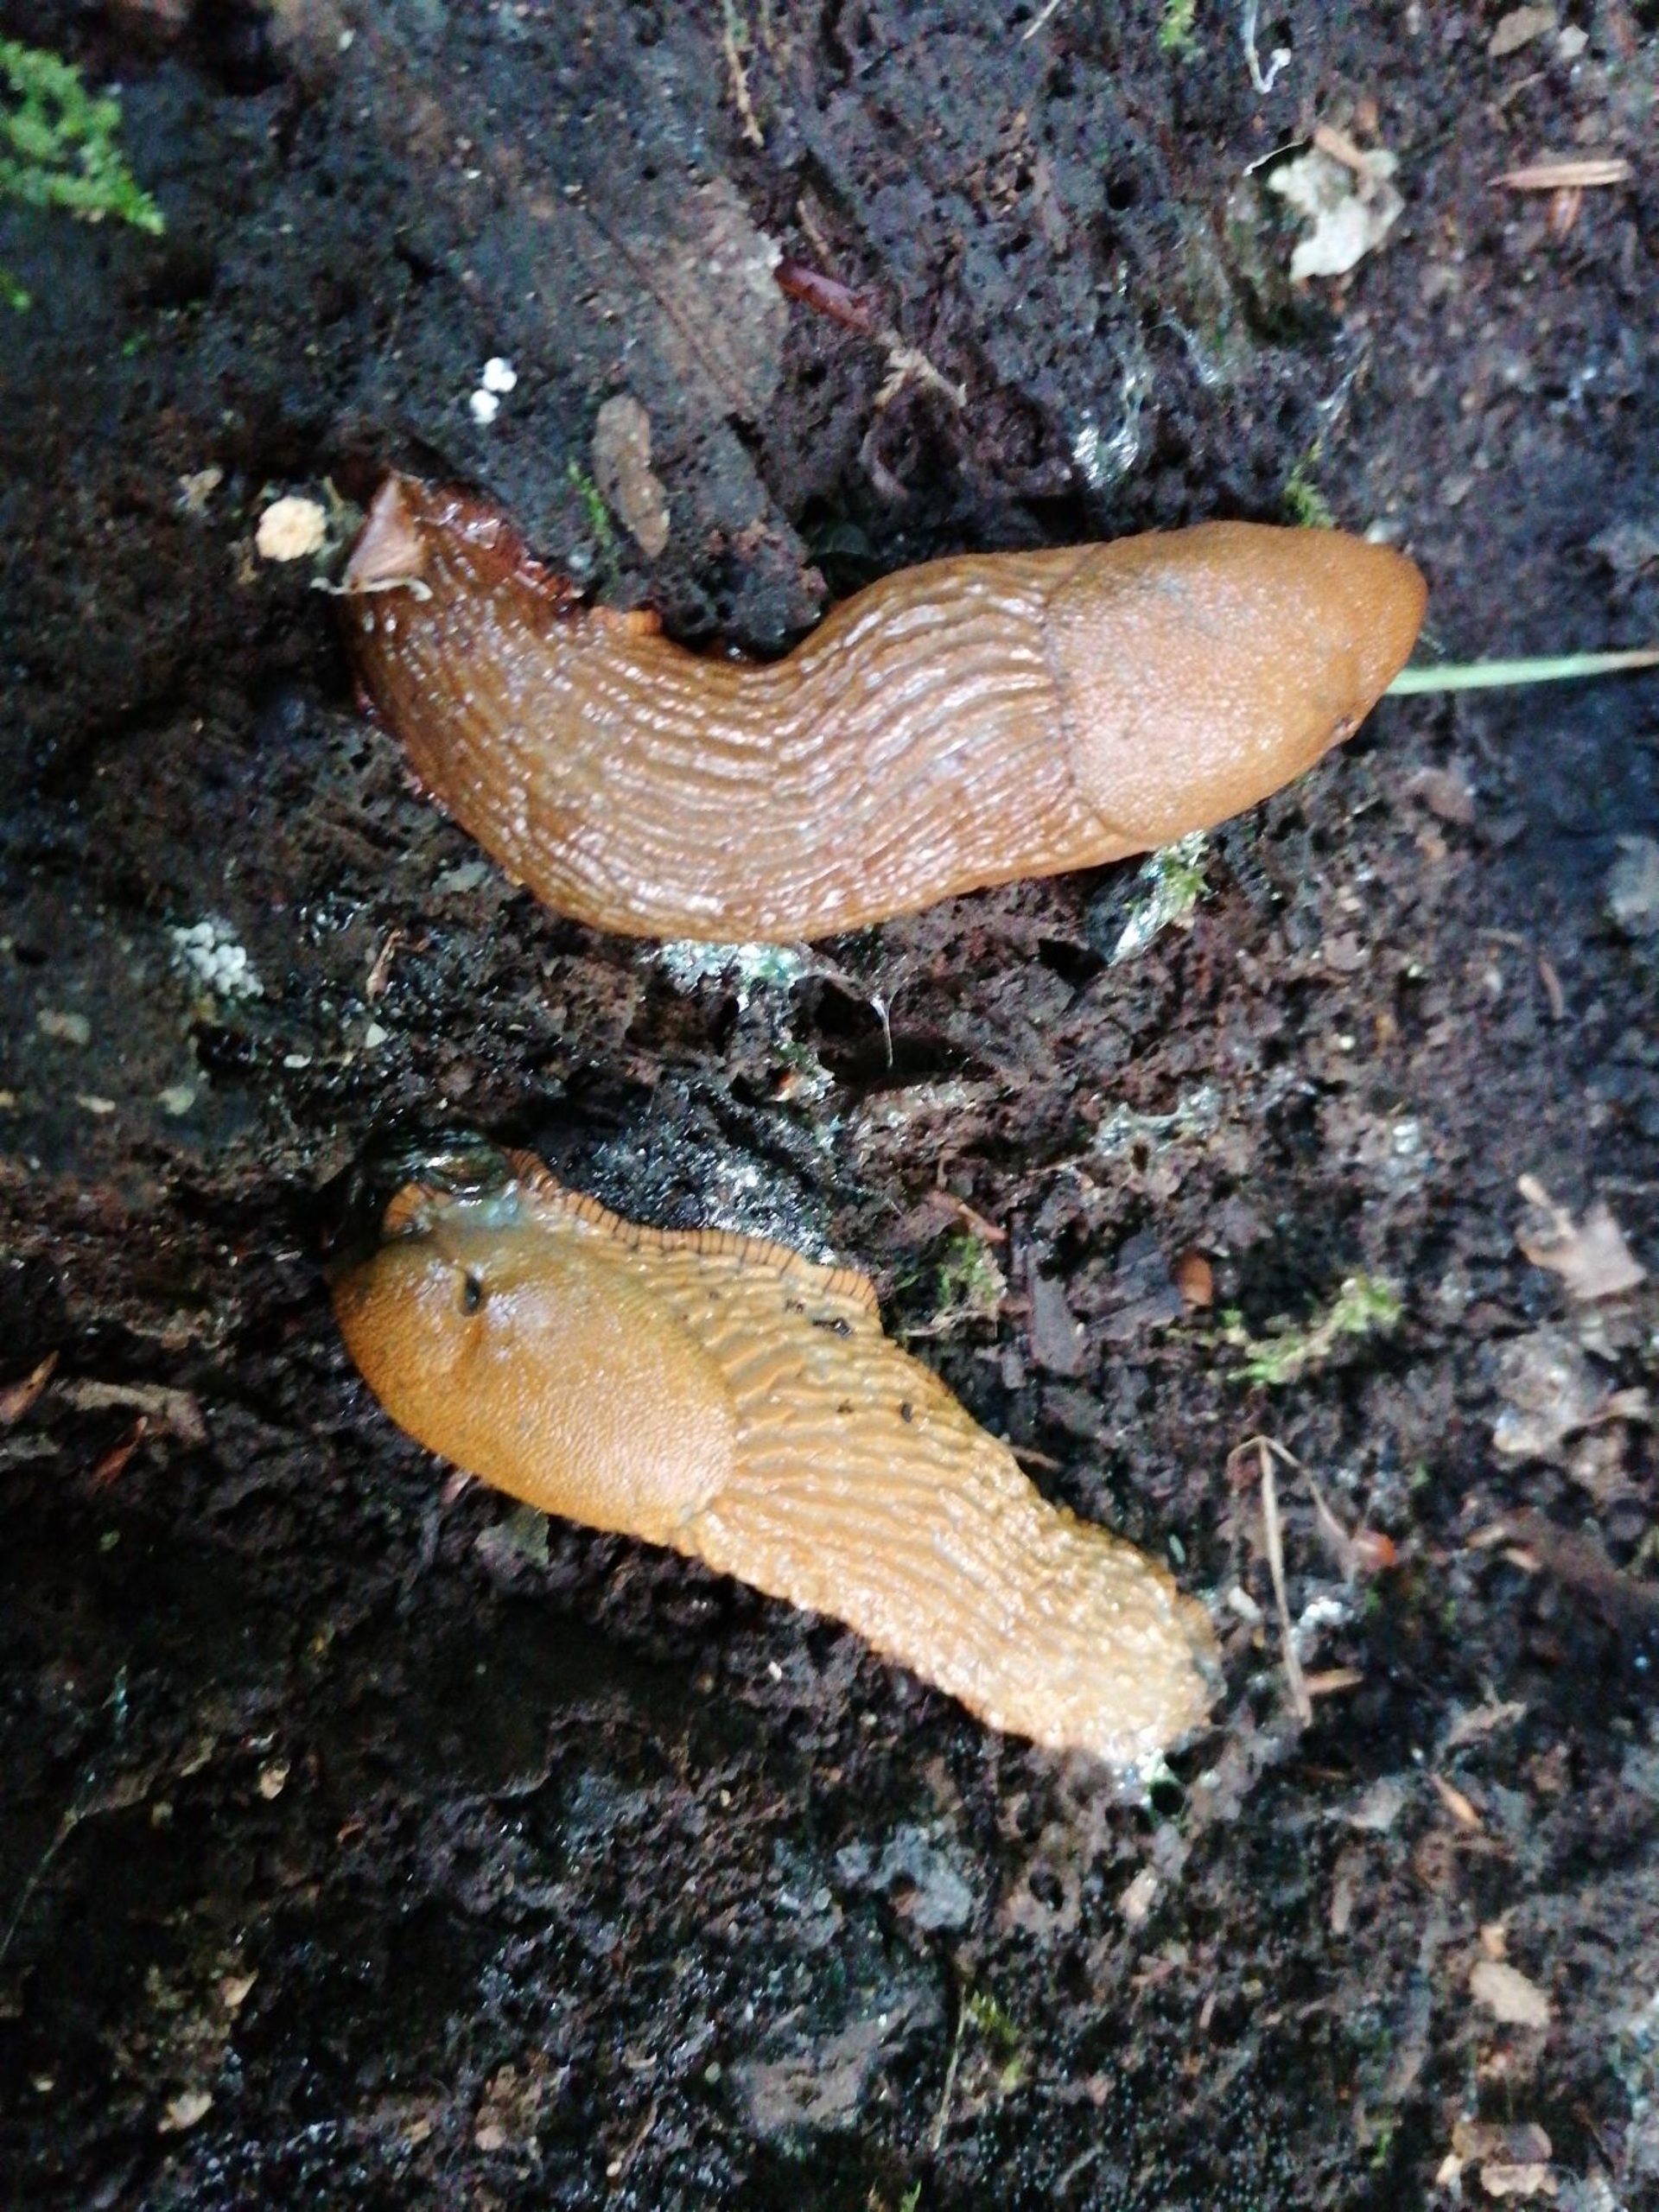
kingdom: Animalia
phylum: Mollusca
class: Gastropoda
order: Stylommatophora
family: Arionidae
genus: Arion
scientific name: Arion vulgaris
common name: Iberisk skovsnegl
